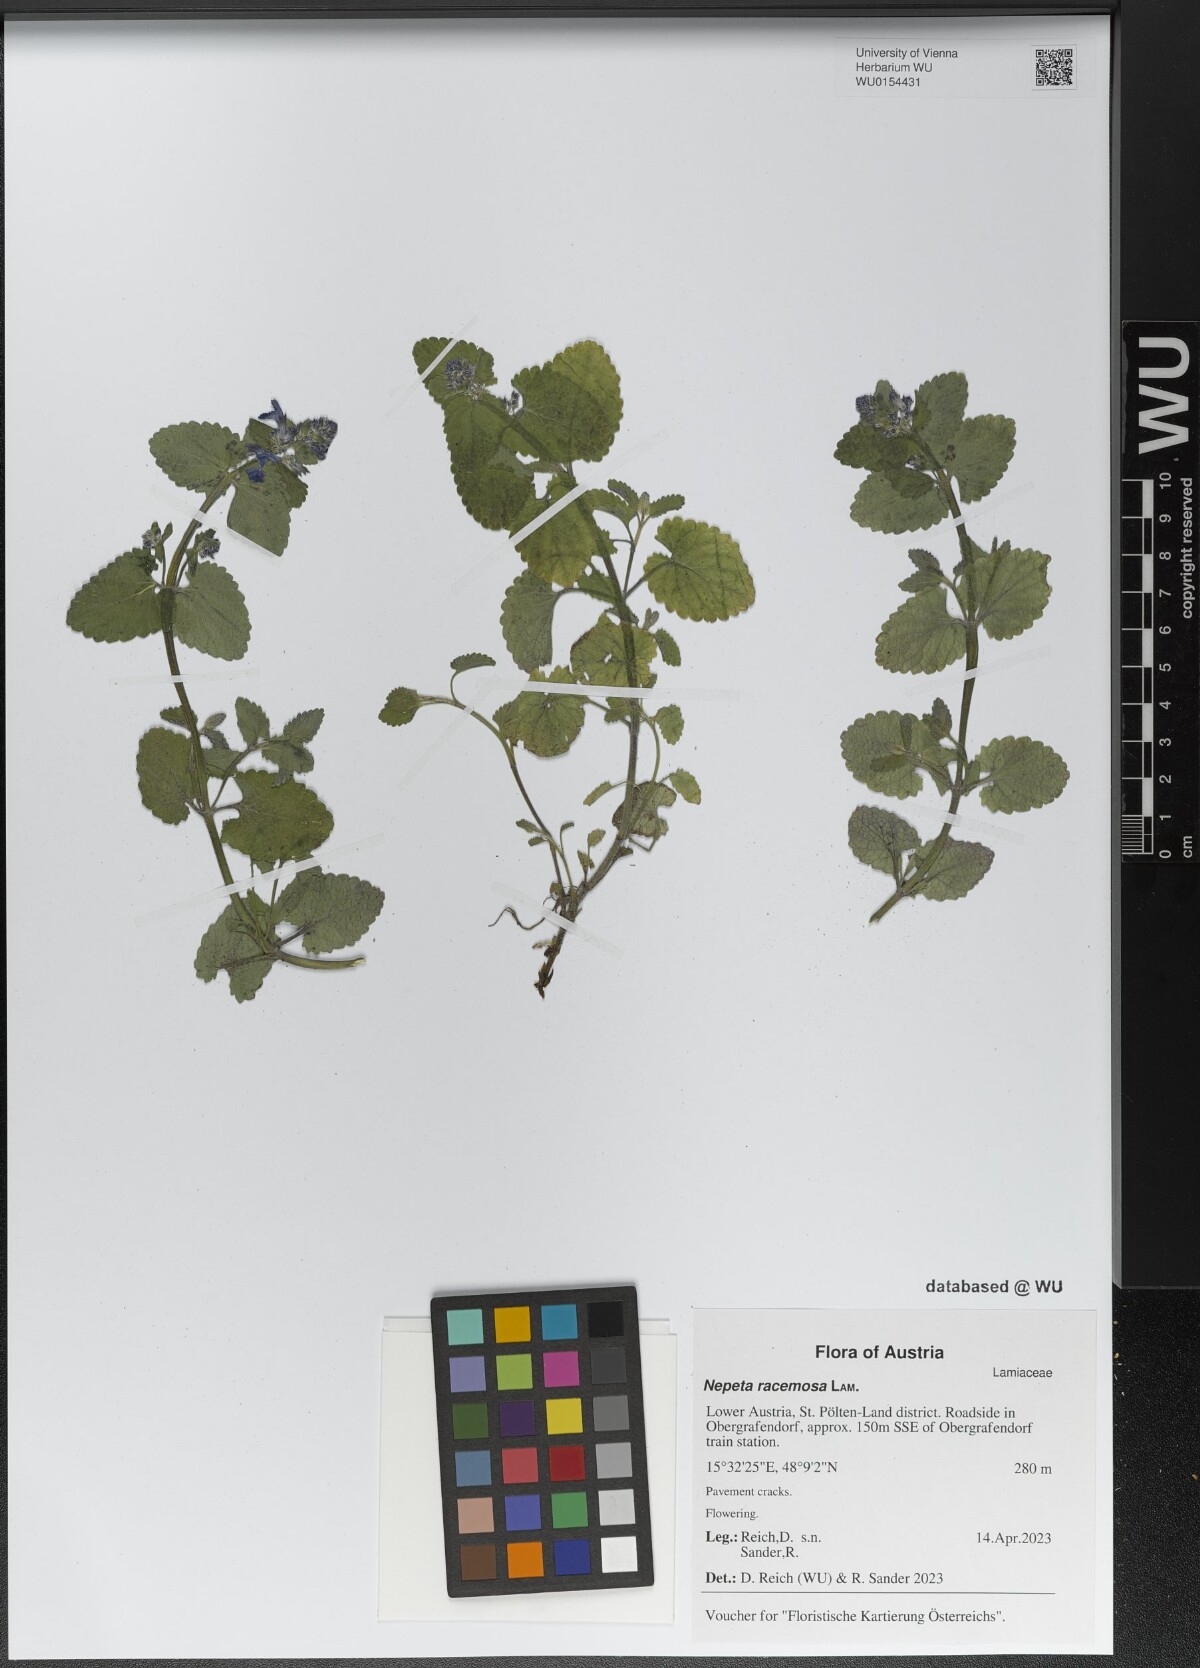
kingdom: Plantae
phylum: Tracheophyta
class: Magnoliopsida
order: Lamiales
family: Lamiaceae
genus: Nepeta
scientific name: Nepeta racemosa
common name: Raceme catnip
